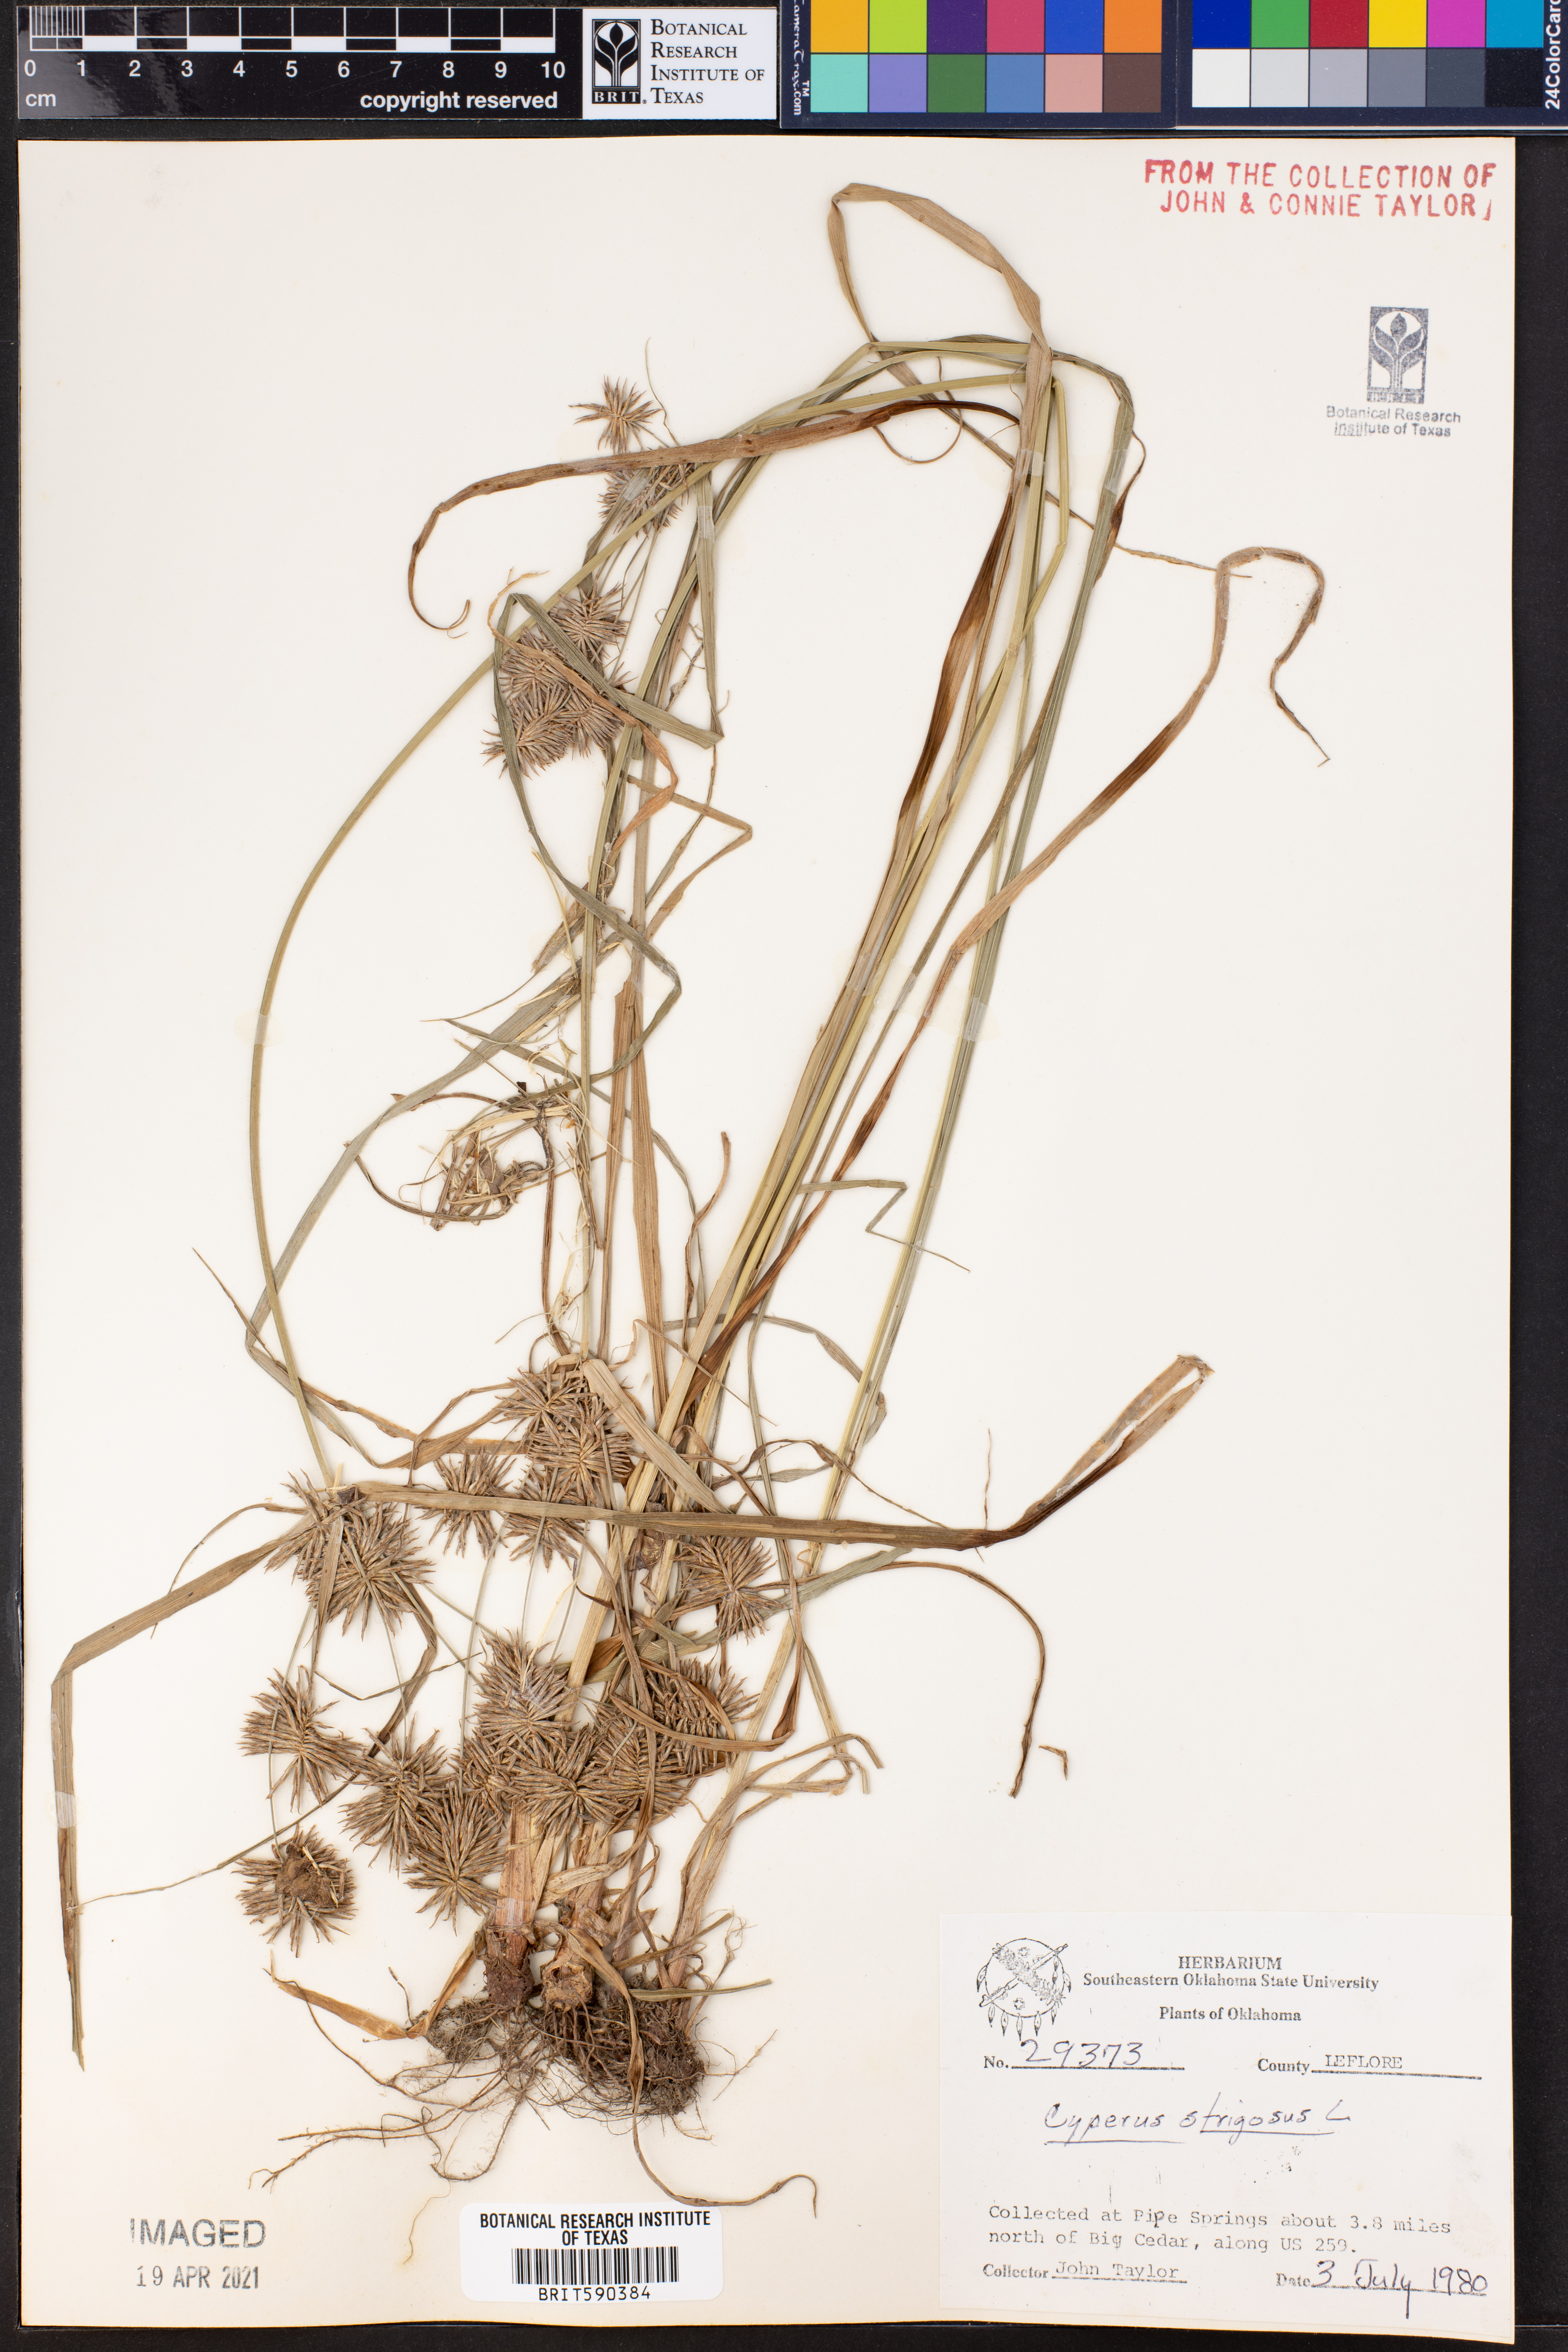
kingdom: Plantae
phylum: Tracheophyta
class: Liliopsida
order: Poales
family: Cyperaceae
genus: Cyperus
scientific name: Cyperus strigosus
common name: False nutsedge
